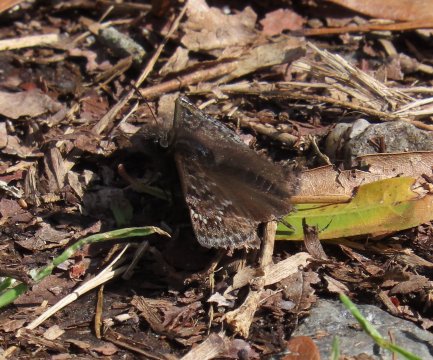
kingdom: Animalia
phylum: Arthropoda
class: Insecta
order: Lepidoptera
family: Hesperiidae
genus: Gesta
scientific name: Gesta
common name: Juvenal's Duskywing
